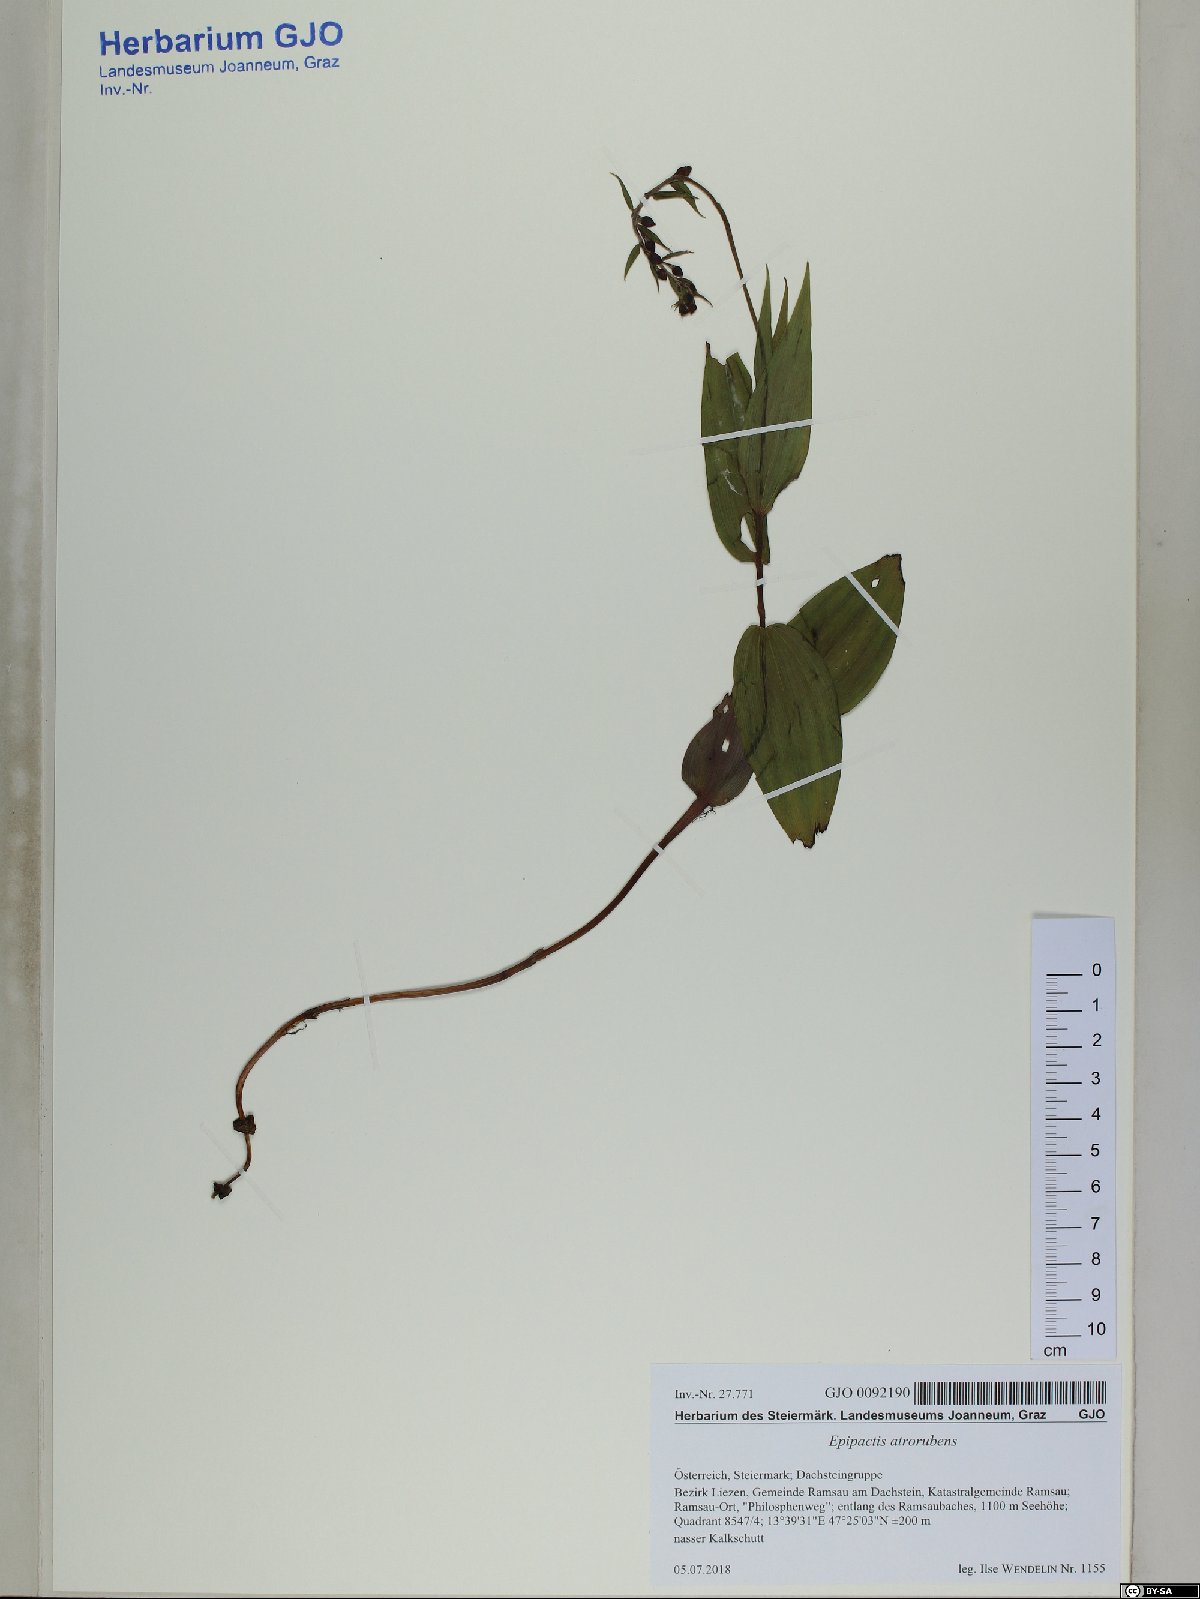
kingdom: Plantae
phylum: Tracheophyta
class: Liliopsida
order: Asparagales
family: Orchidaceae
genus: Epipactis
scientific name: Epipactis atrorubens
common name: Dark-red helleborine
